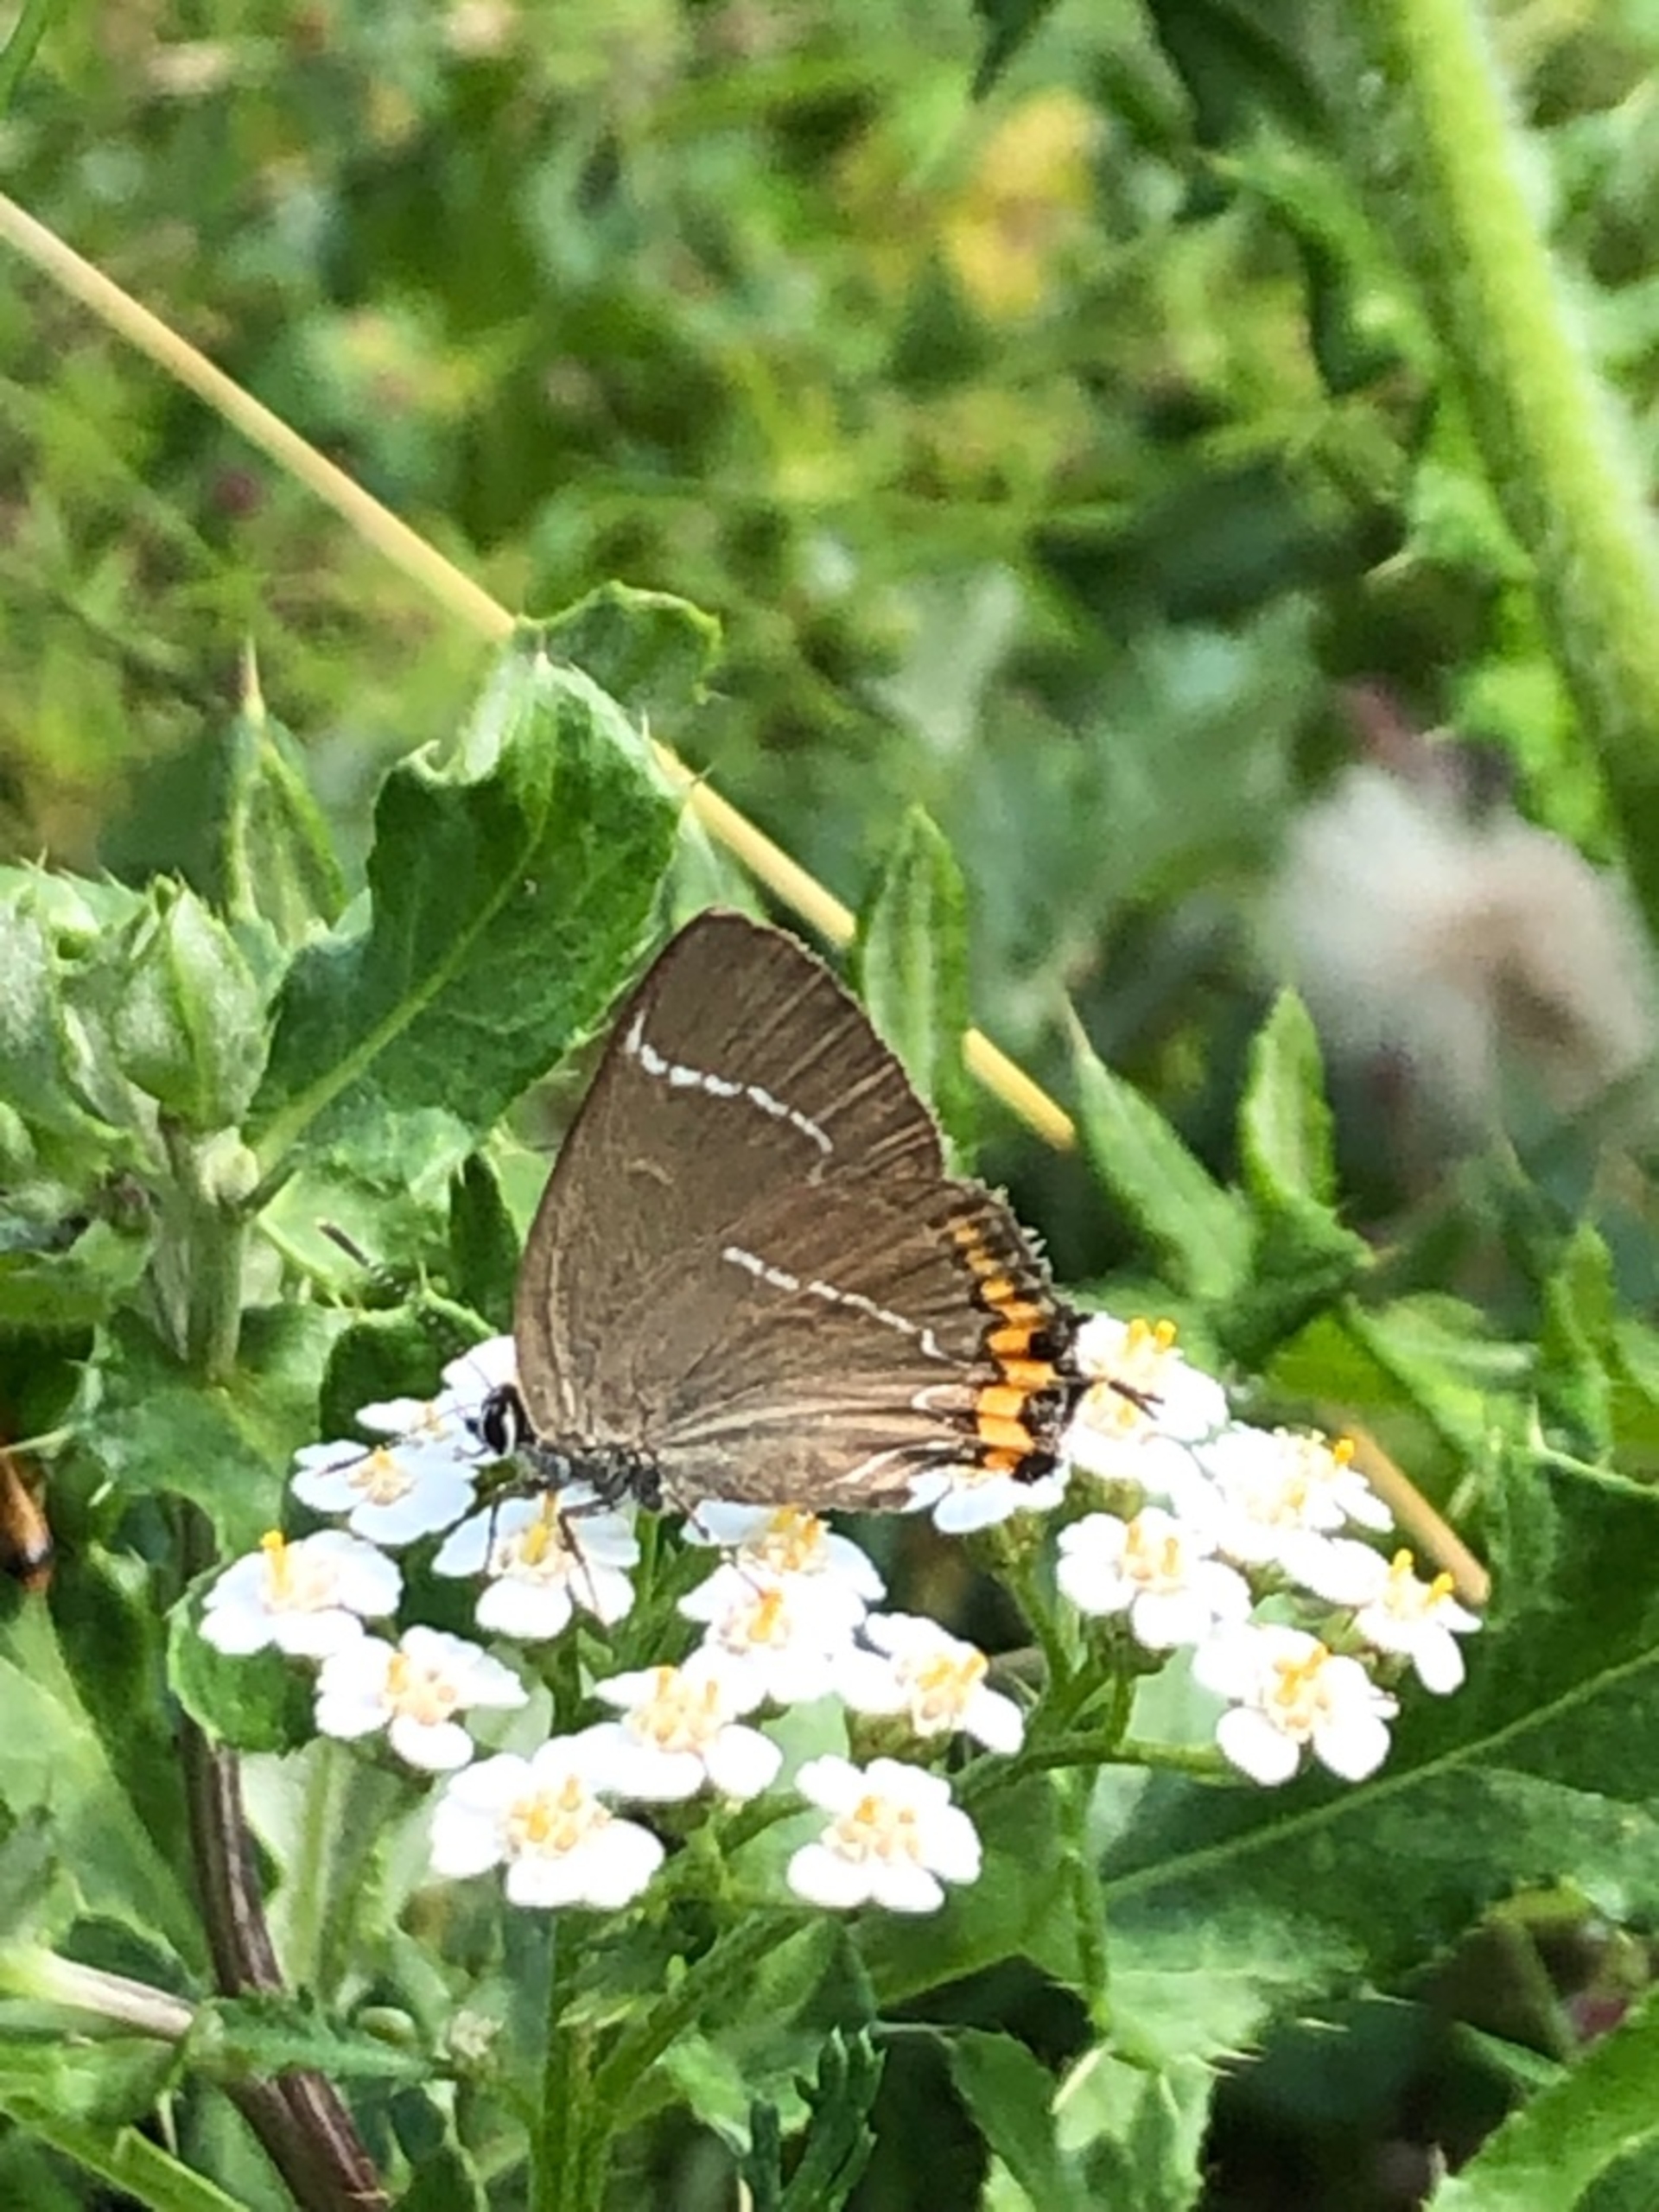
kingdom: Animalia
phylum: Arthropoda
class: Insecta
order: Lepidoptera
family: Lycaenidae
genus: Satyrium
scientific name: Satyrium w-album
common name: Det hvide W
